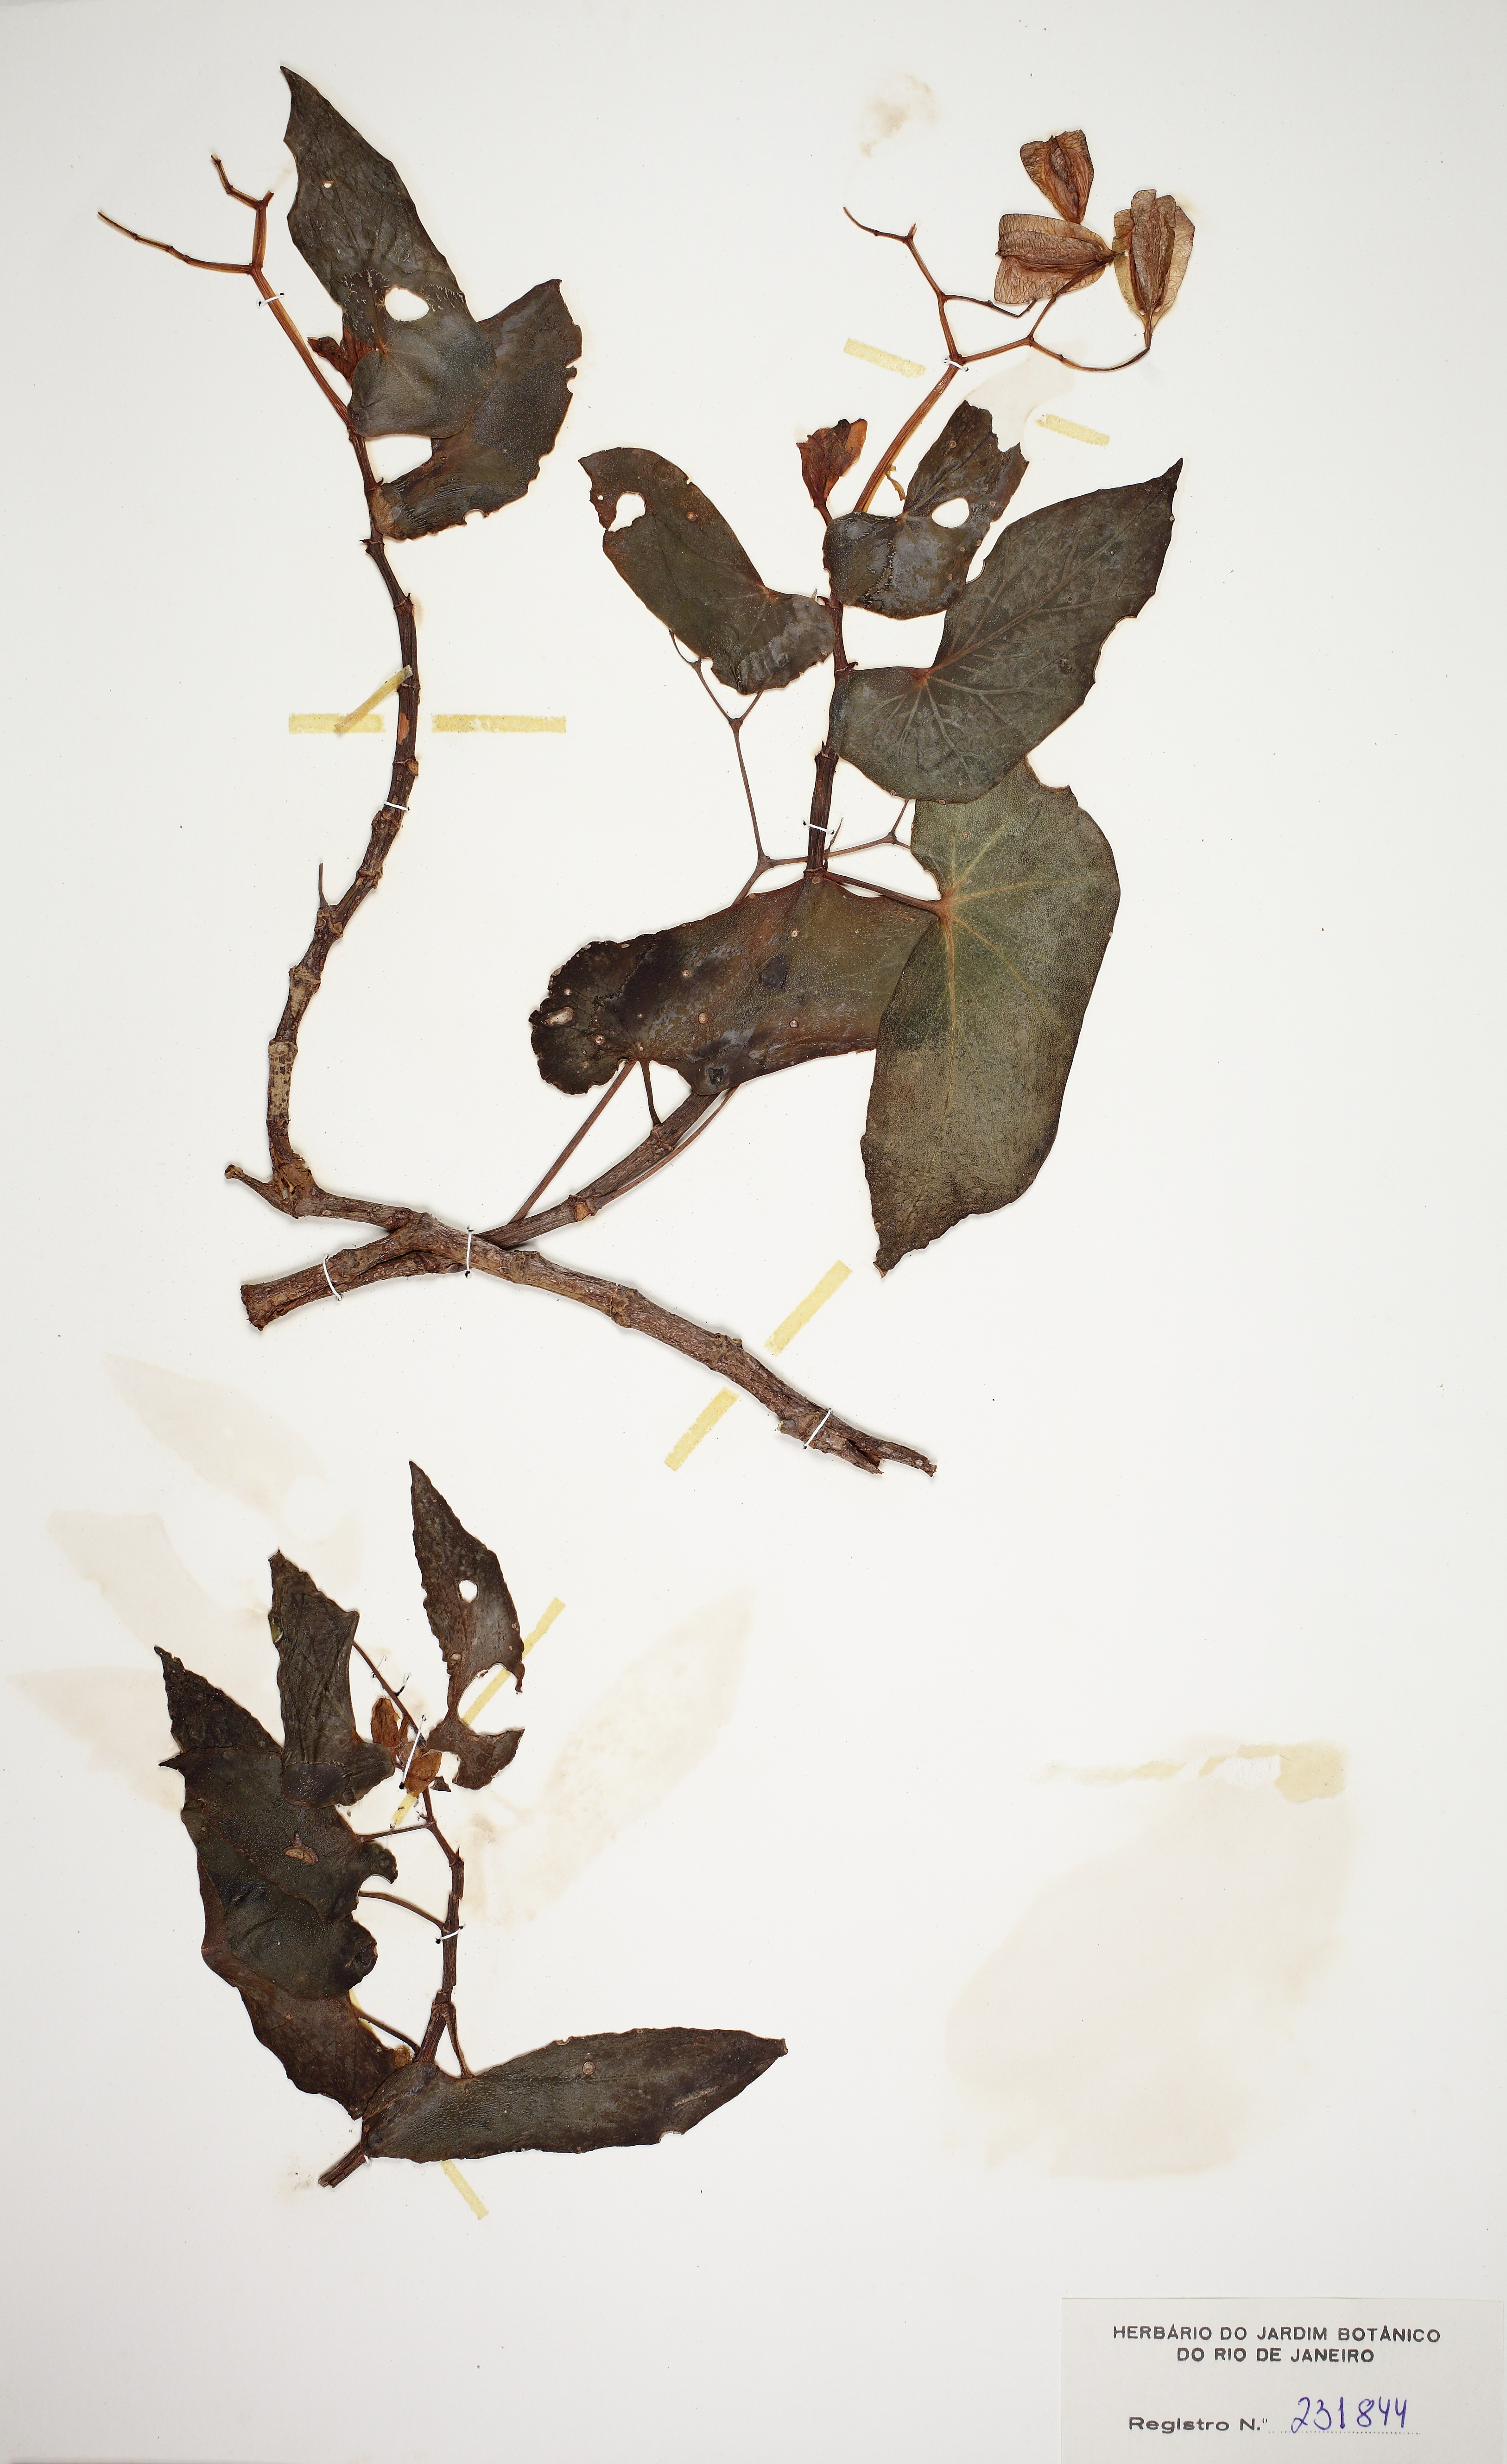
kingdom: Plantae
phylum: Tracheophyta
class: Magnoliopsida
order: Cucurbitales
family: Begoniaceae
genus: Begonia
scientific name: Begonia coccinea
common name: Angel-wing begonia
